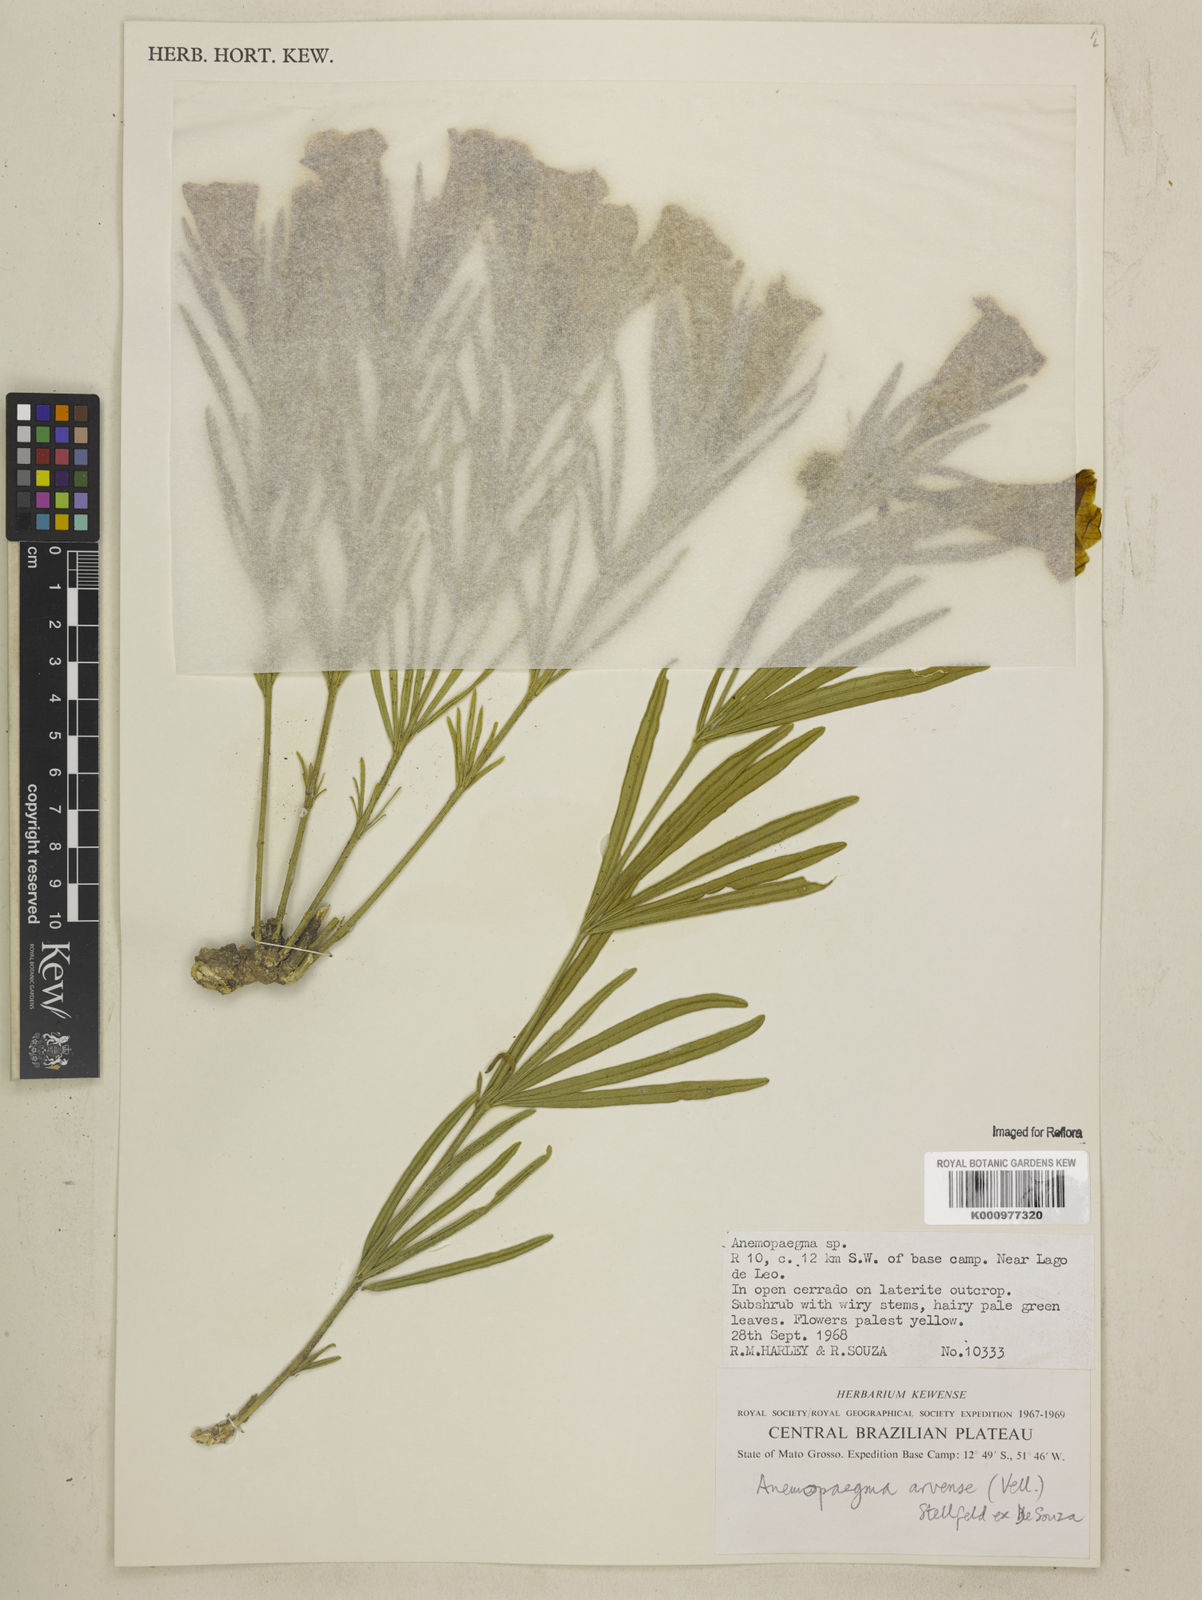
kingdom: Plantae
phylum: Tracheophyta
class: Magnoliopsida
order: Lamiales
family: Bignoniaceae
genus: Anemopaegma
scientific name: Anemopaegma arvense
